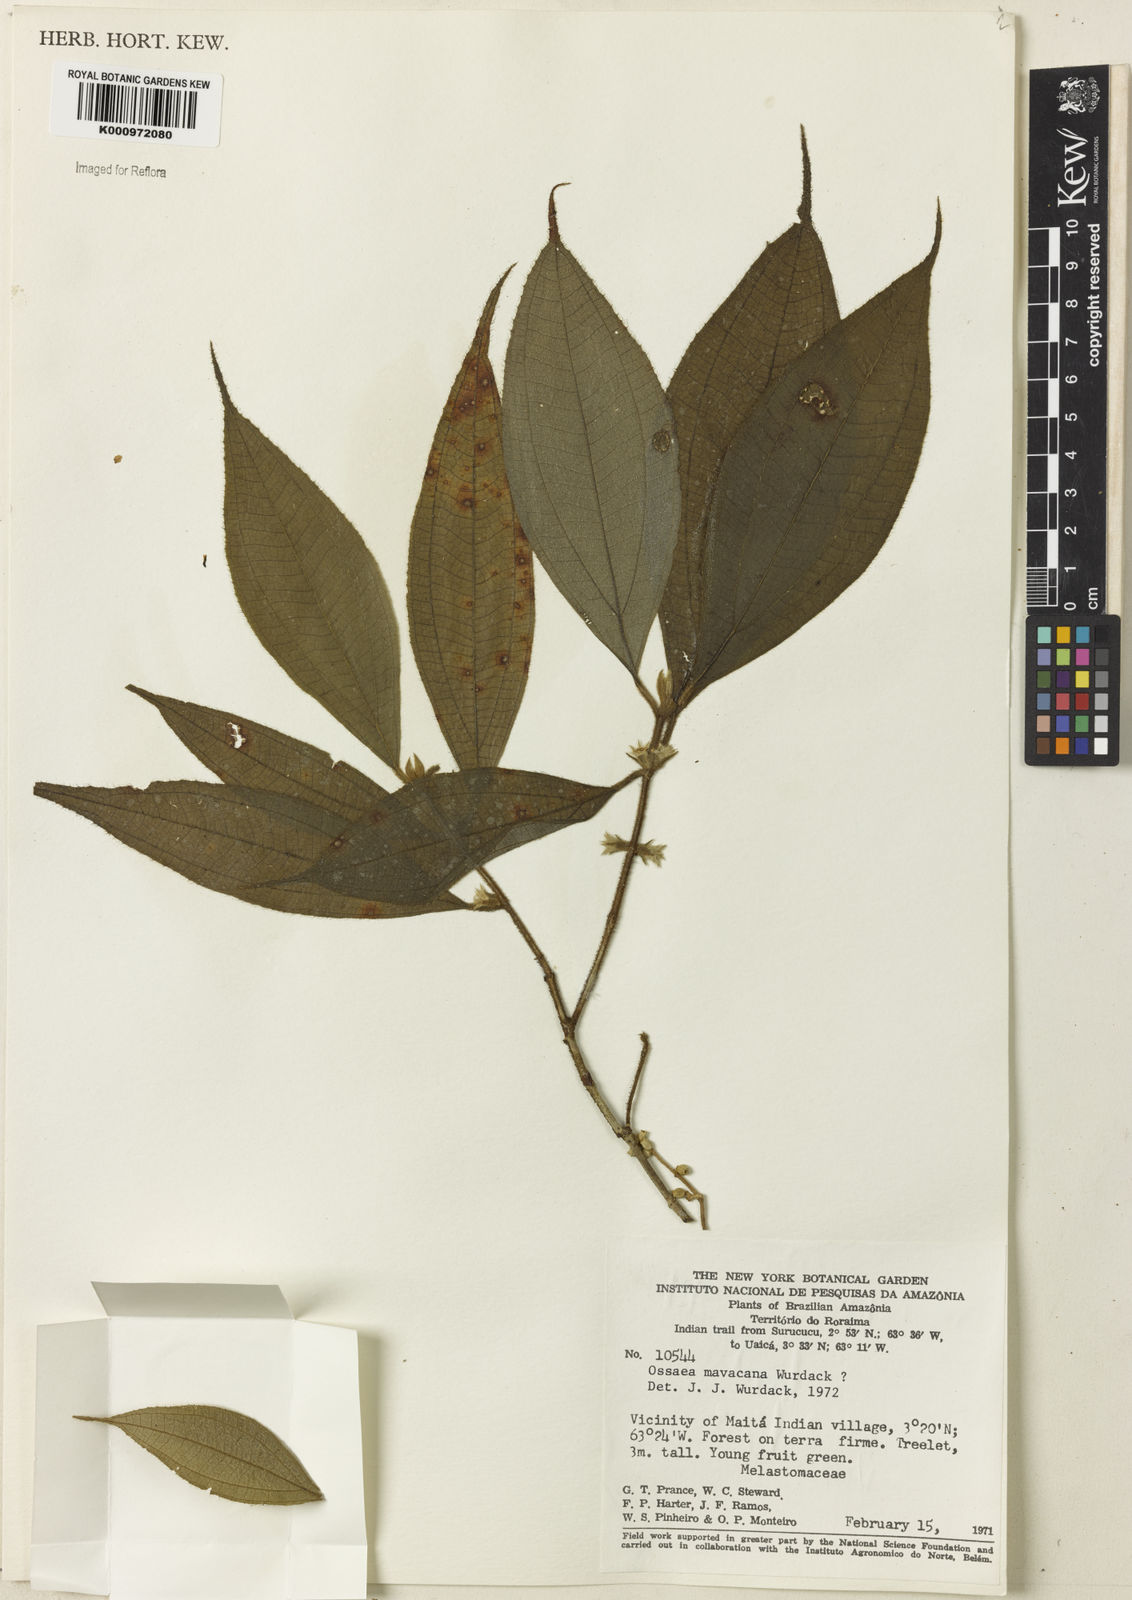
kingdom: Plantae
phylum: Tracheophyta
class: Magnoliopsida
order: Myrtales
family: Melastomataceae
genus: Miconia
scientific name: Miconia mavacana
